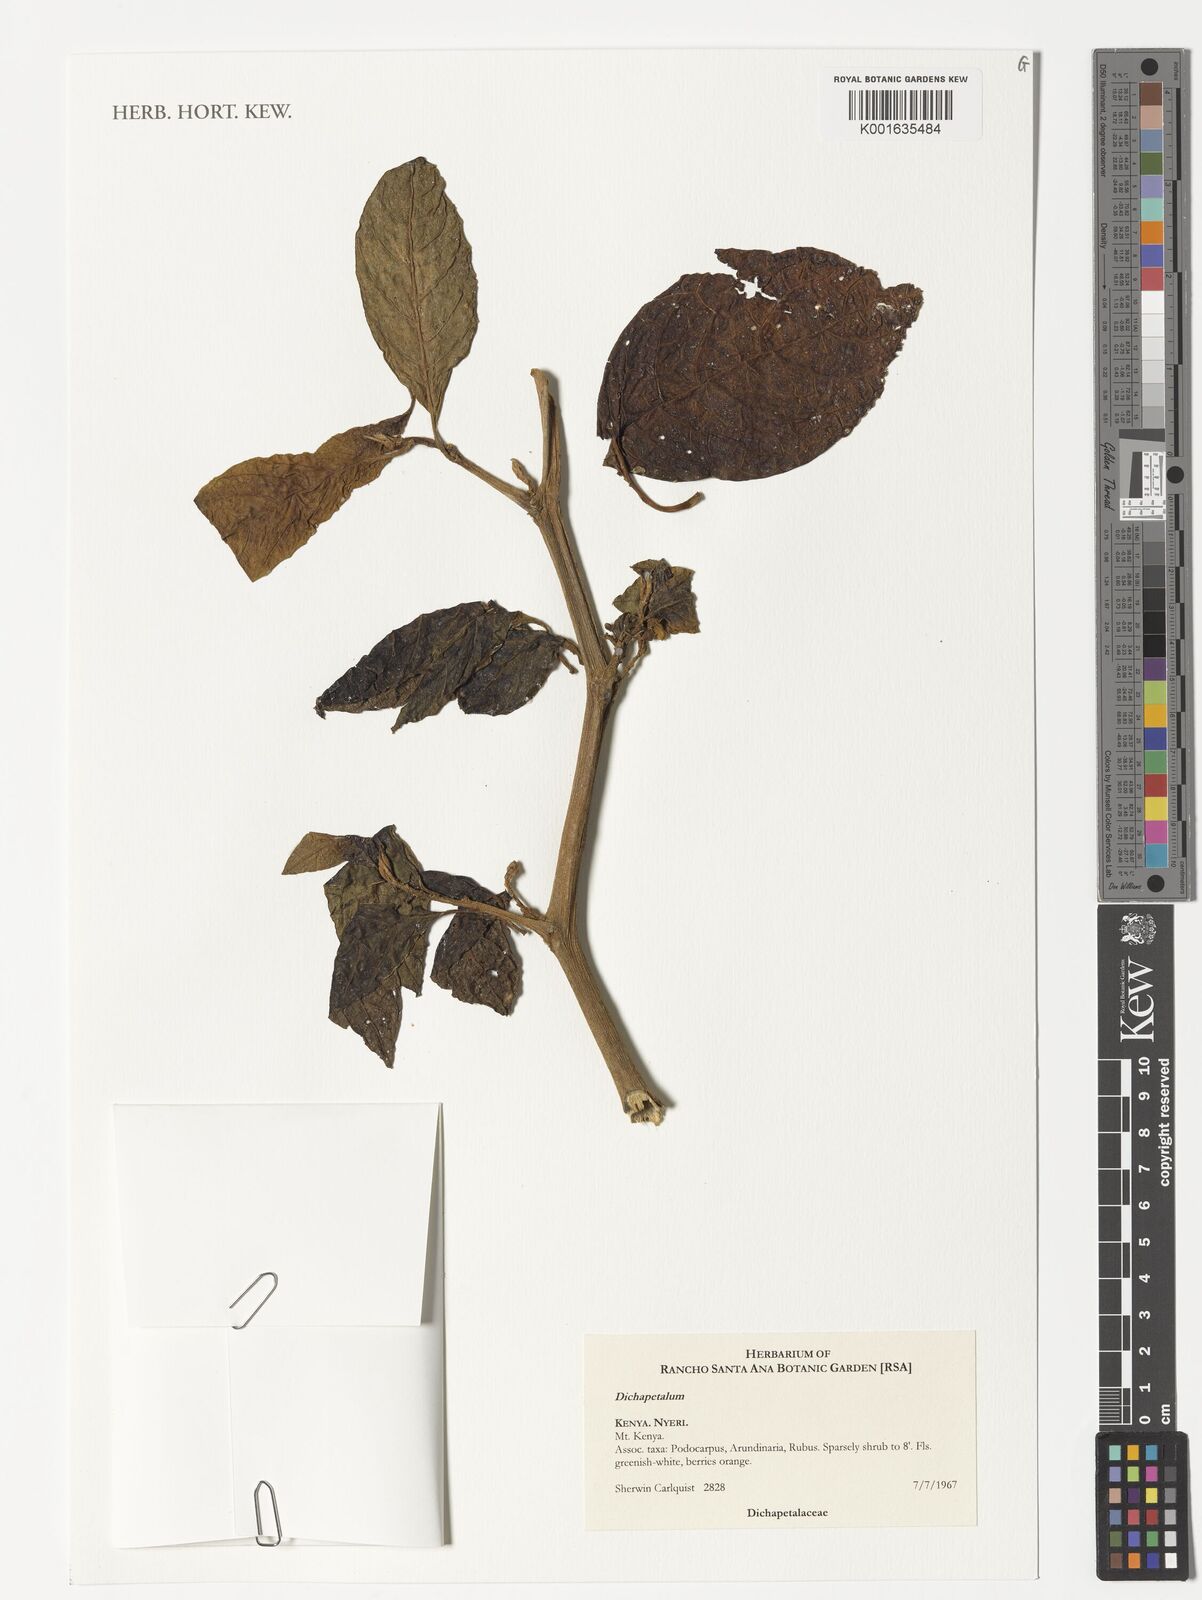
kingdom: Plantae
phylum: Tracheophyta
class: Magnoliopsida
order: Malpighiales
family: Dichapetalaceae
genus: Dichapetalum
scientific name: Dichapetalum
